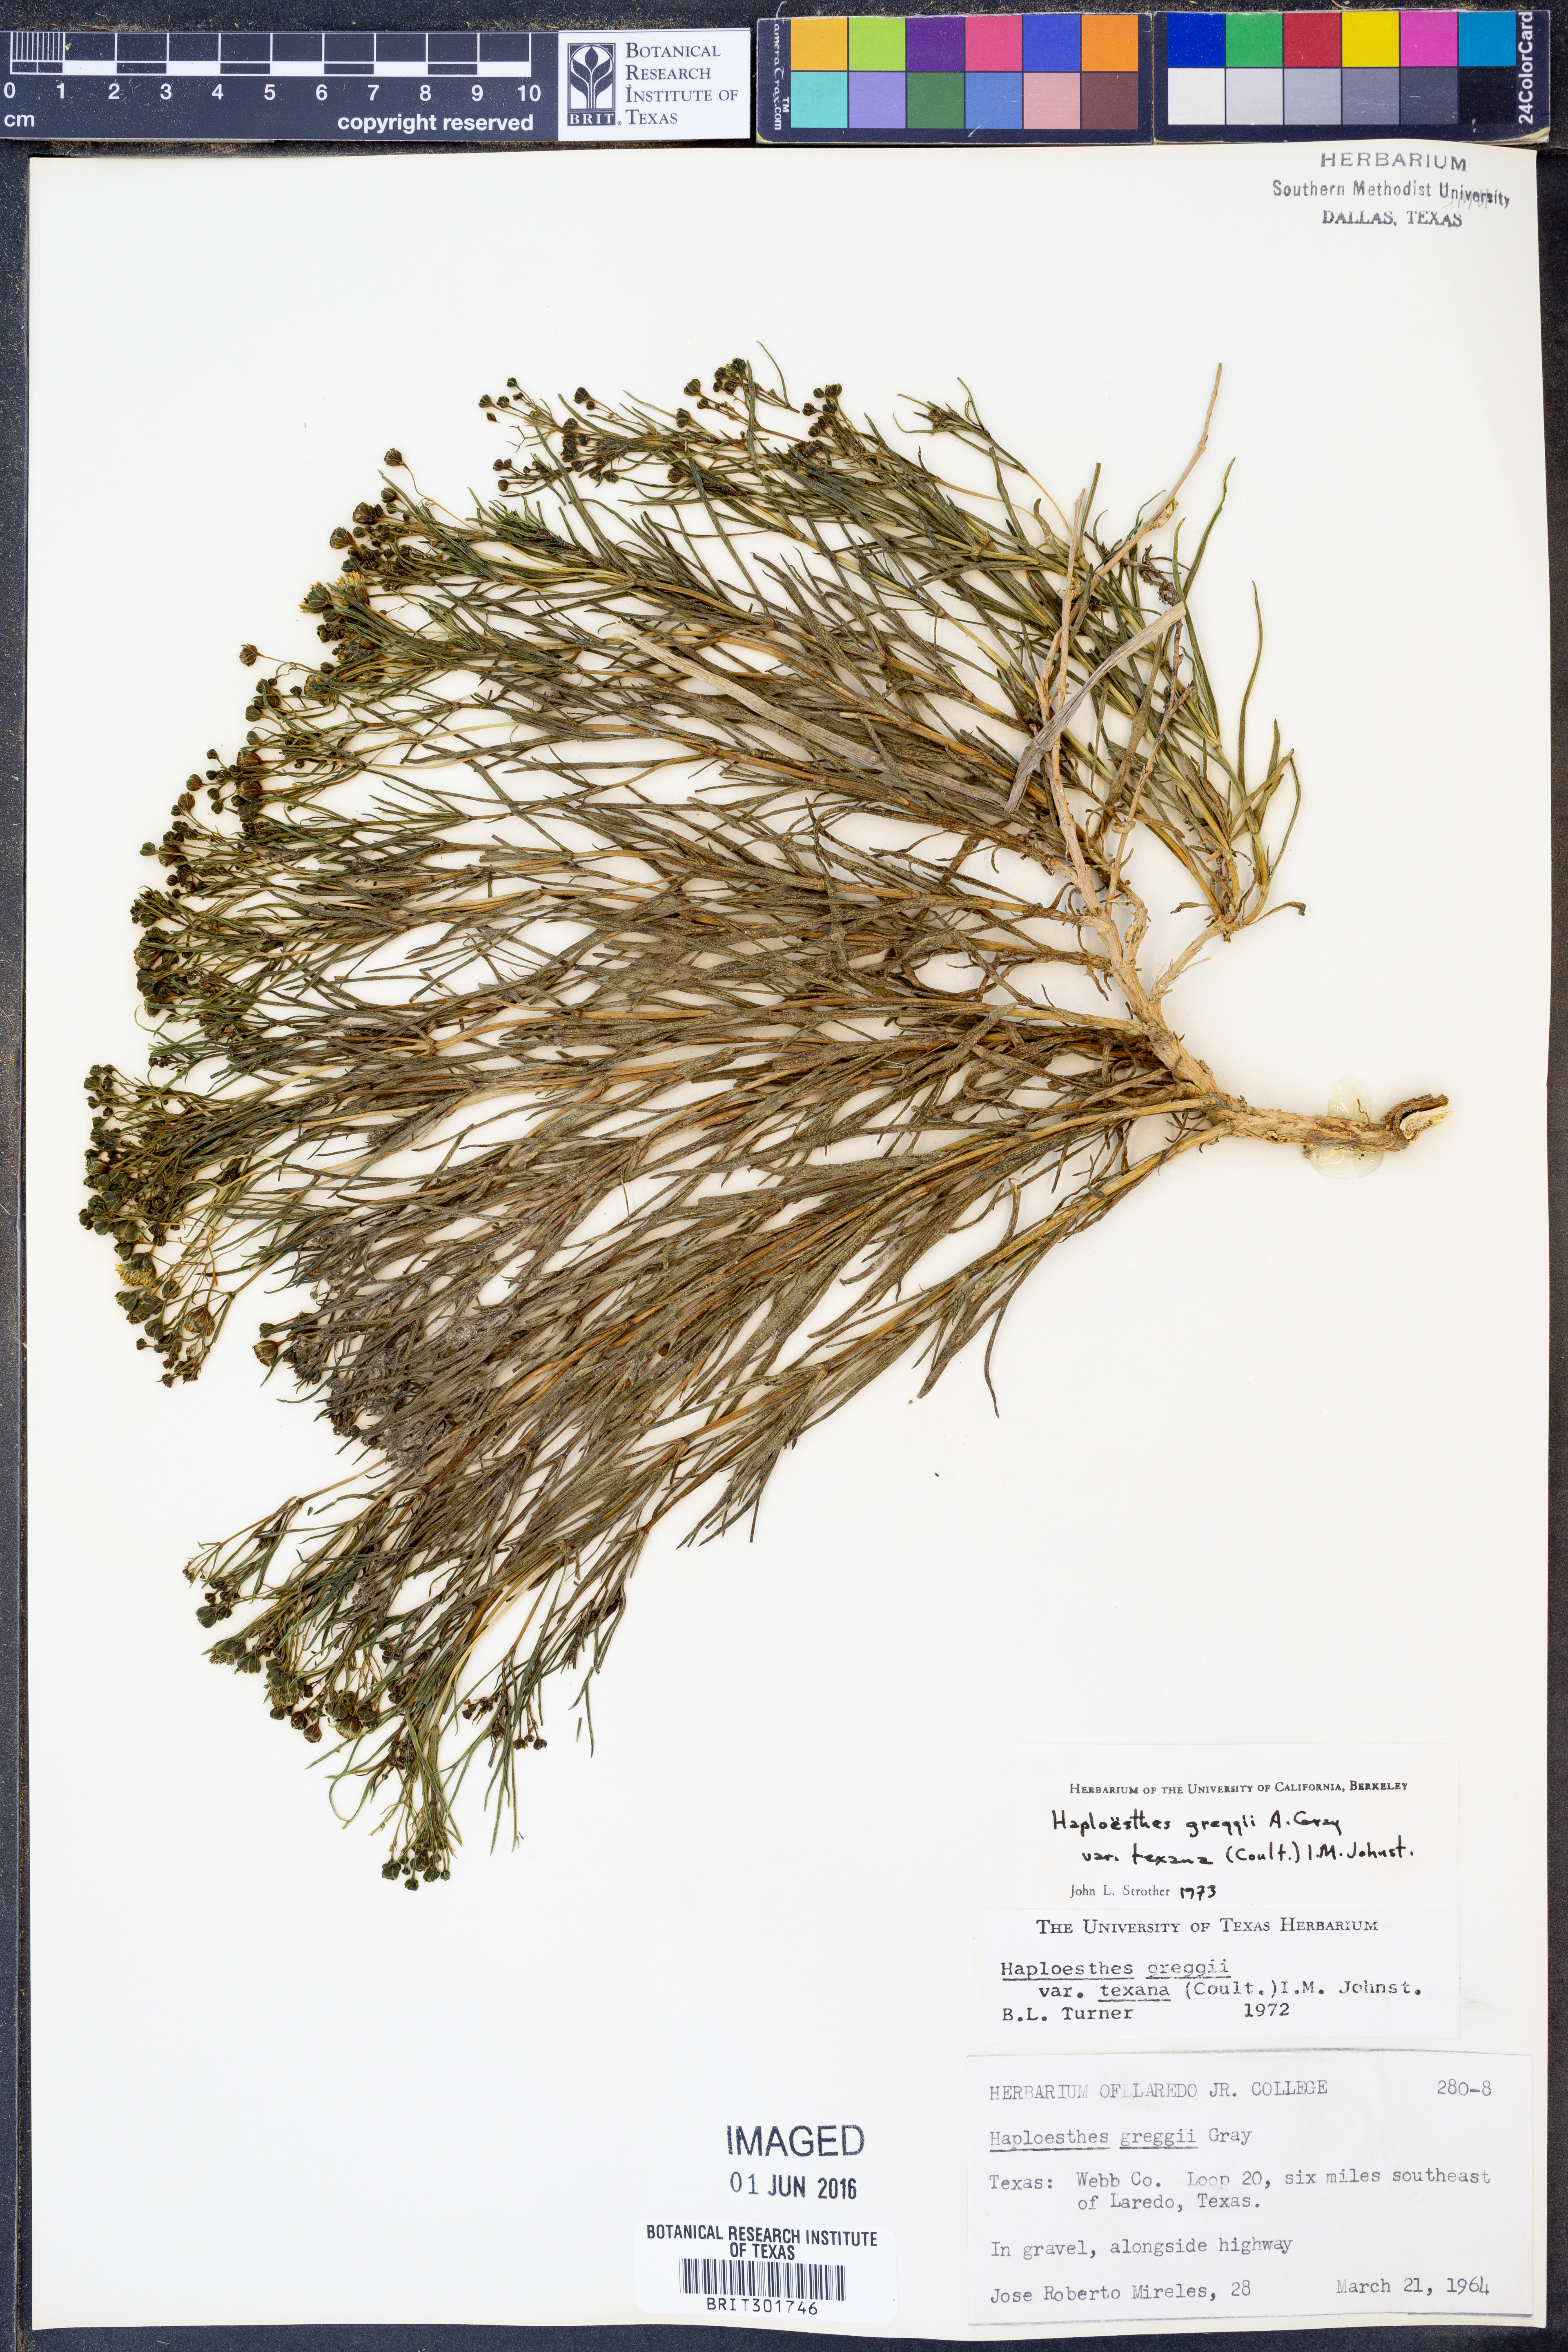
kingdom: Plantae
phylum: Tracheophyta
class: Magnoliopsida
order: Asterales
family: Asteraceae
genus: Haploesthes
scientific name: Haploesthes greggii
